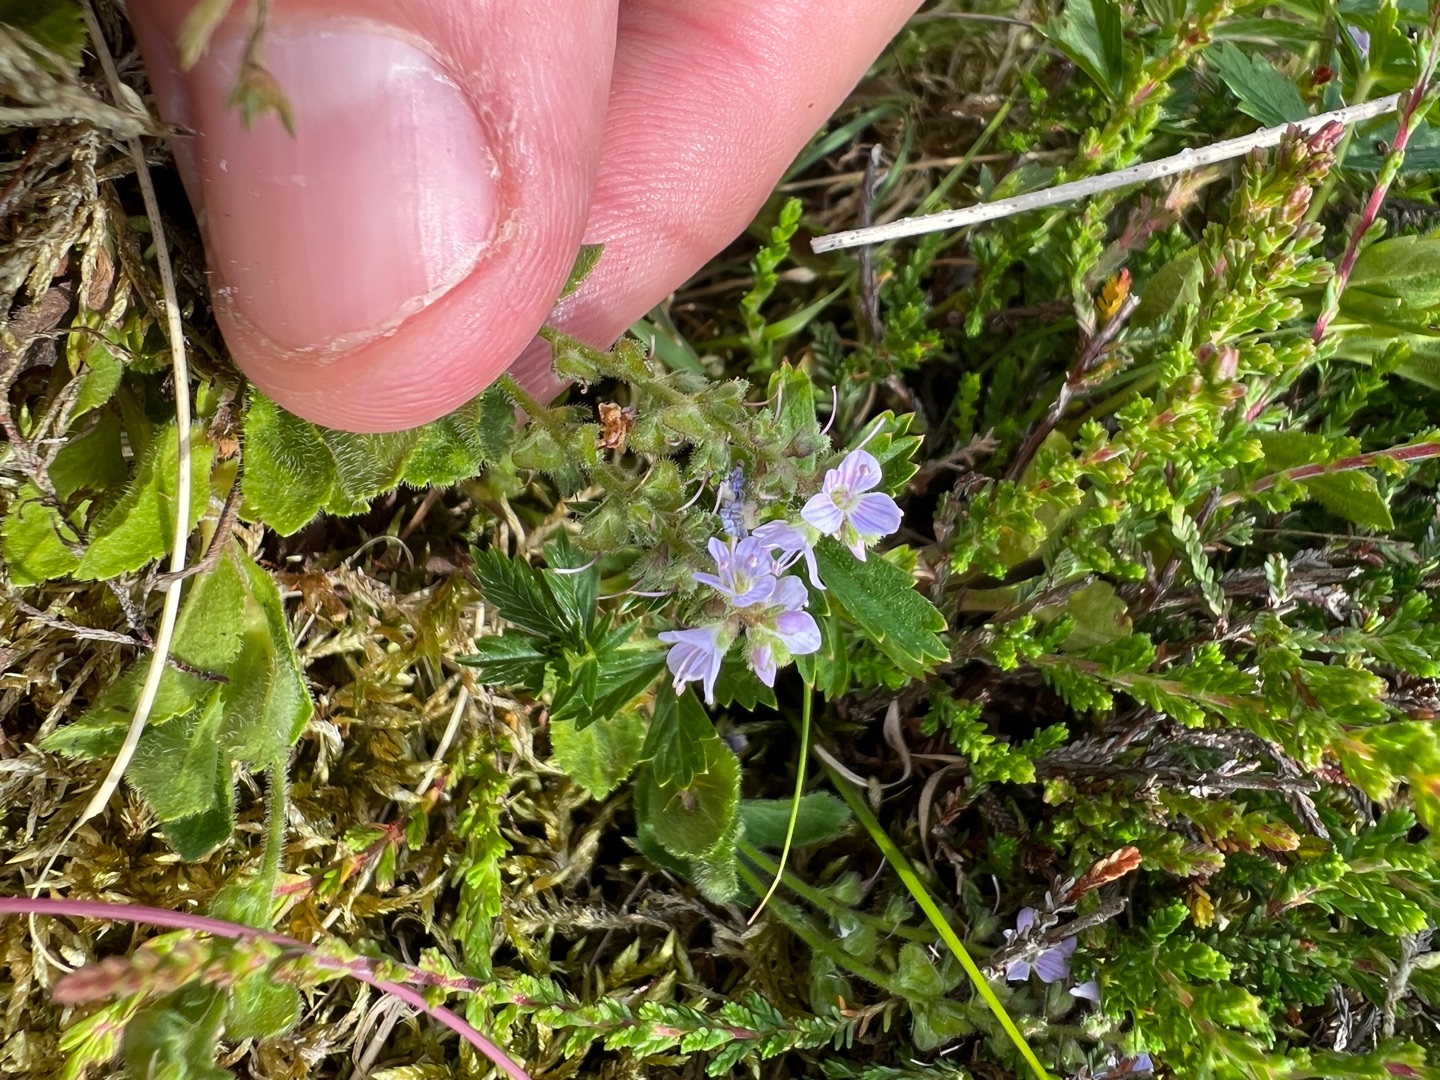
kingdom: Plantae
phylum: Tracheophyta
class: Magnoliopsida
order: Lamiales
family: Plantaginaceae
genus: Veronica
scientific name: Veronica officinalis
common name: Læge-ærenpris
